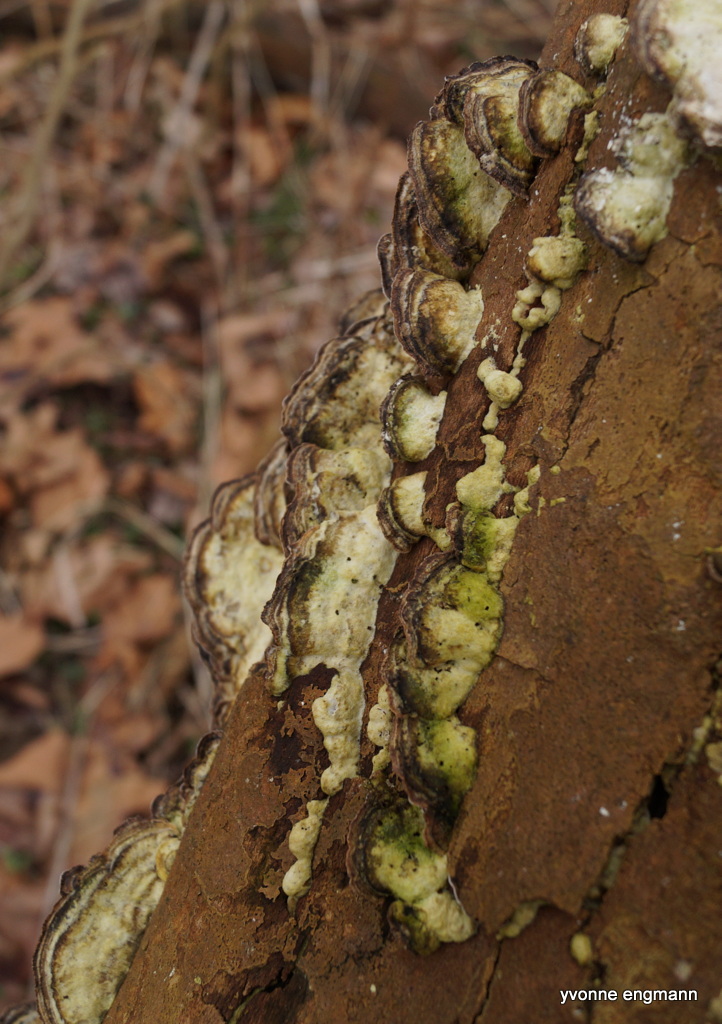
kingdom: Fungi
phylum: Basidiomycota
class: Agaricomycetes
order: Polyporales
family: Phanerochaetaceae
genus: Bjerkandera
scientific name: Bjerkandera adusta
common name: sveden sodporesvamp
